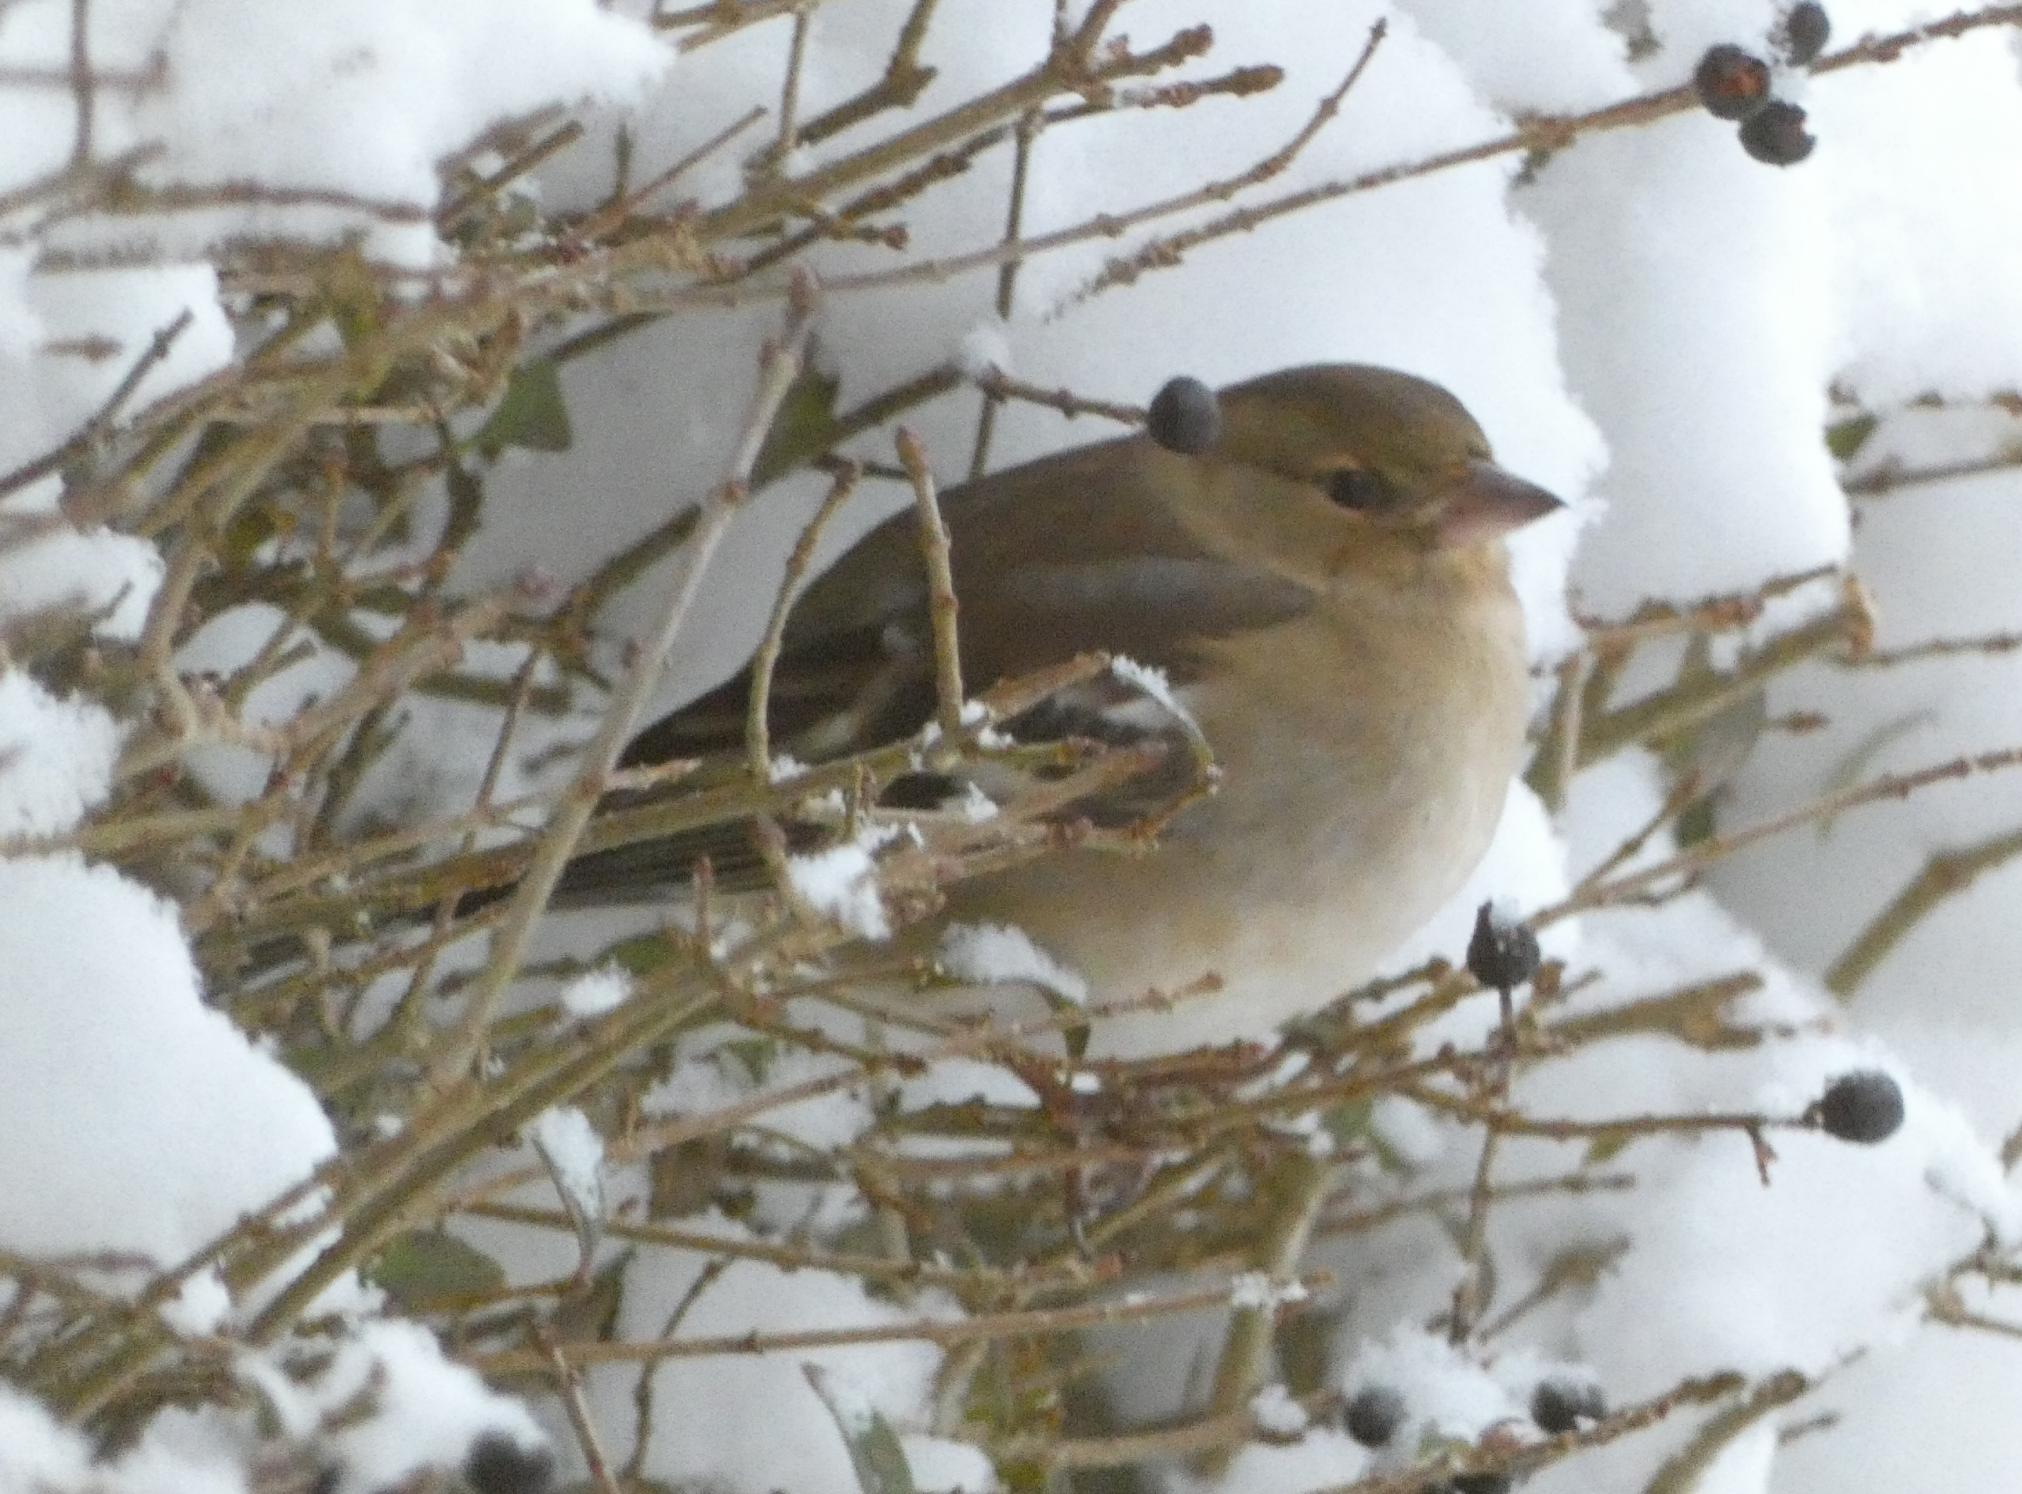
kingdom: Animalia
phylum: Chordata
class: Aves
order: Passeriformes
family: Fringillidae
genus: Fringilla
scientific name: Fringilla coelebs
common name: Bogfinke
